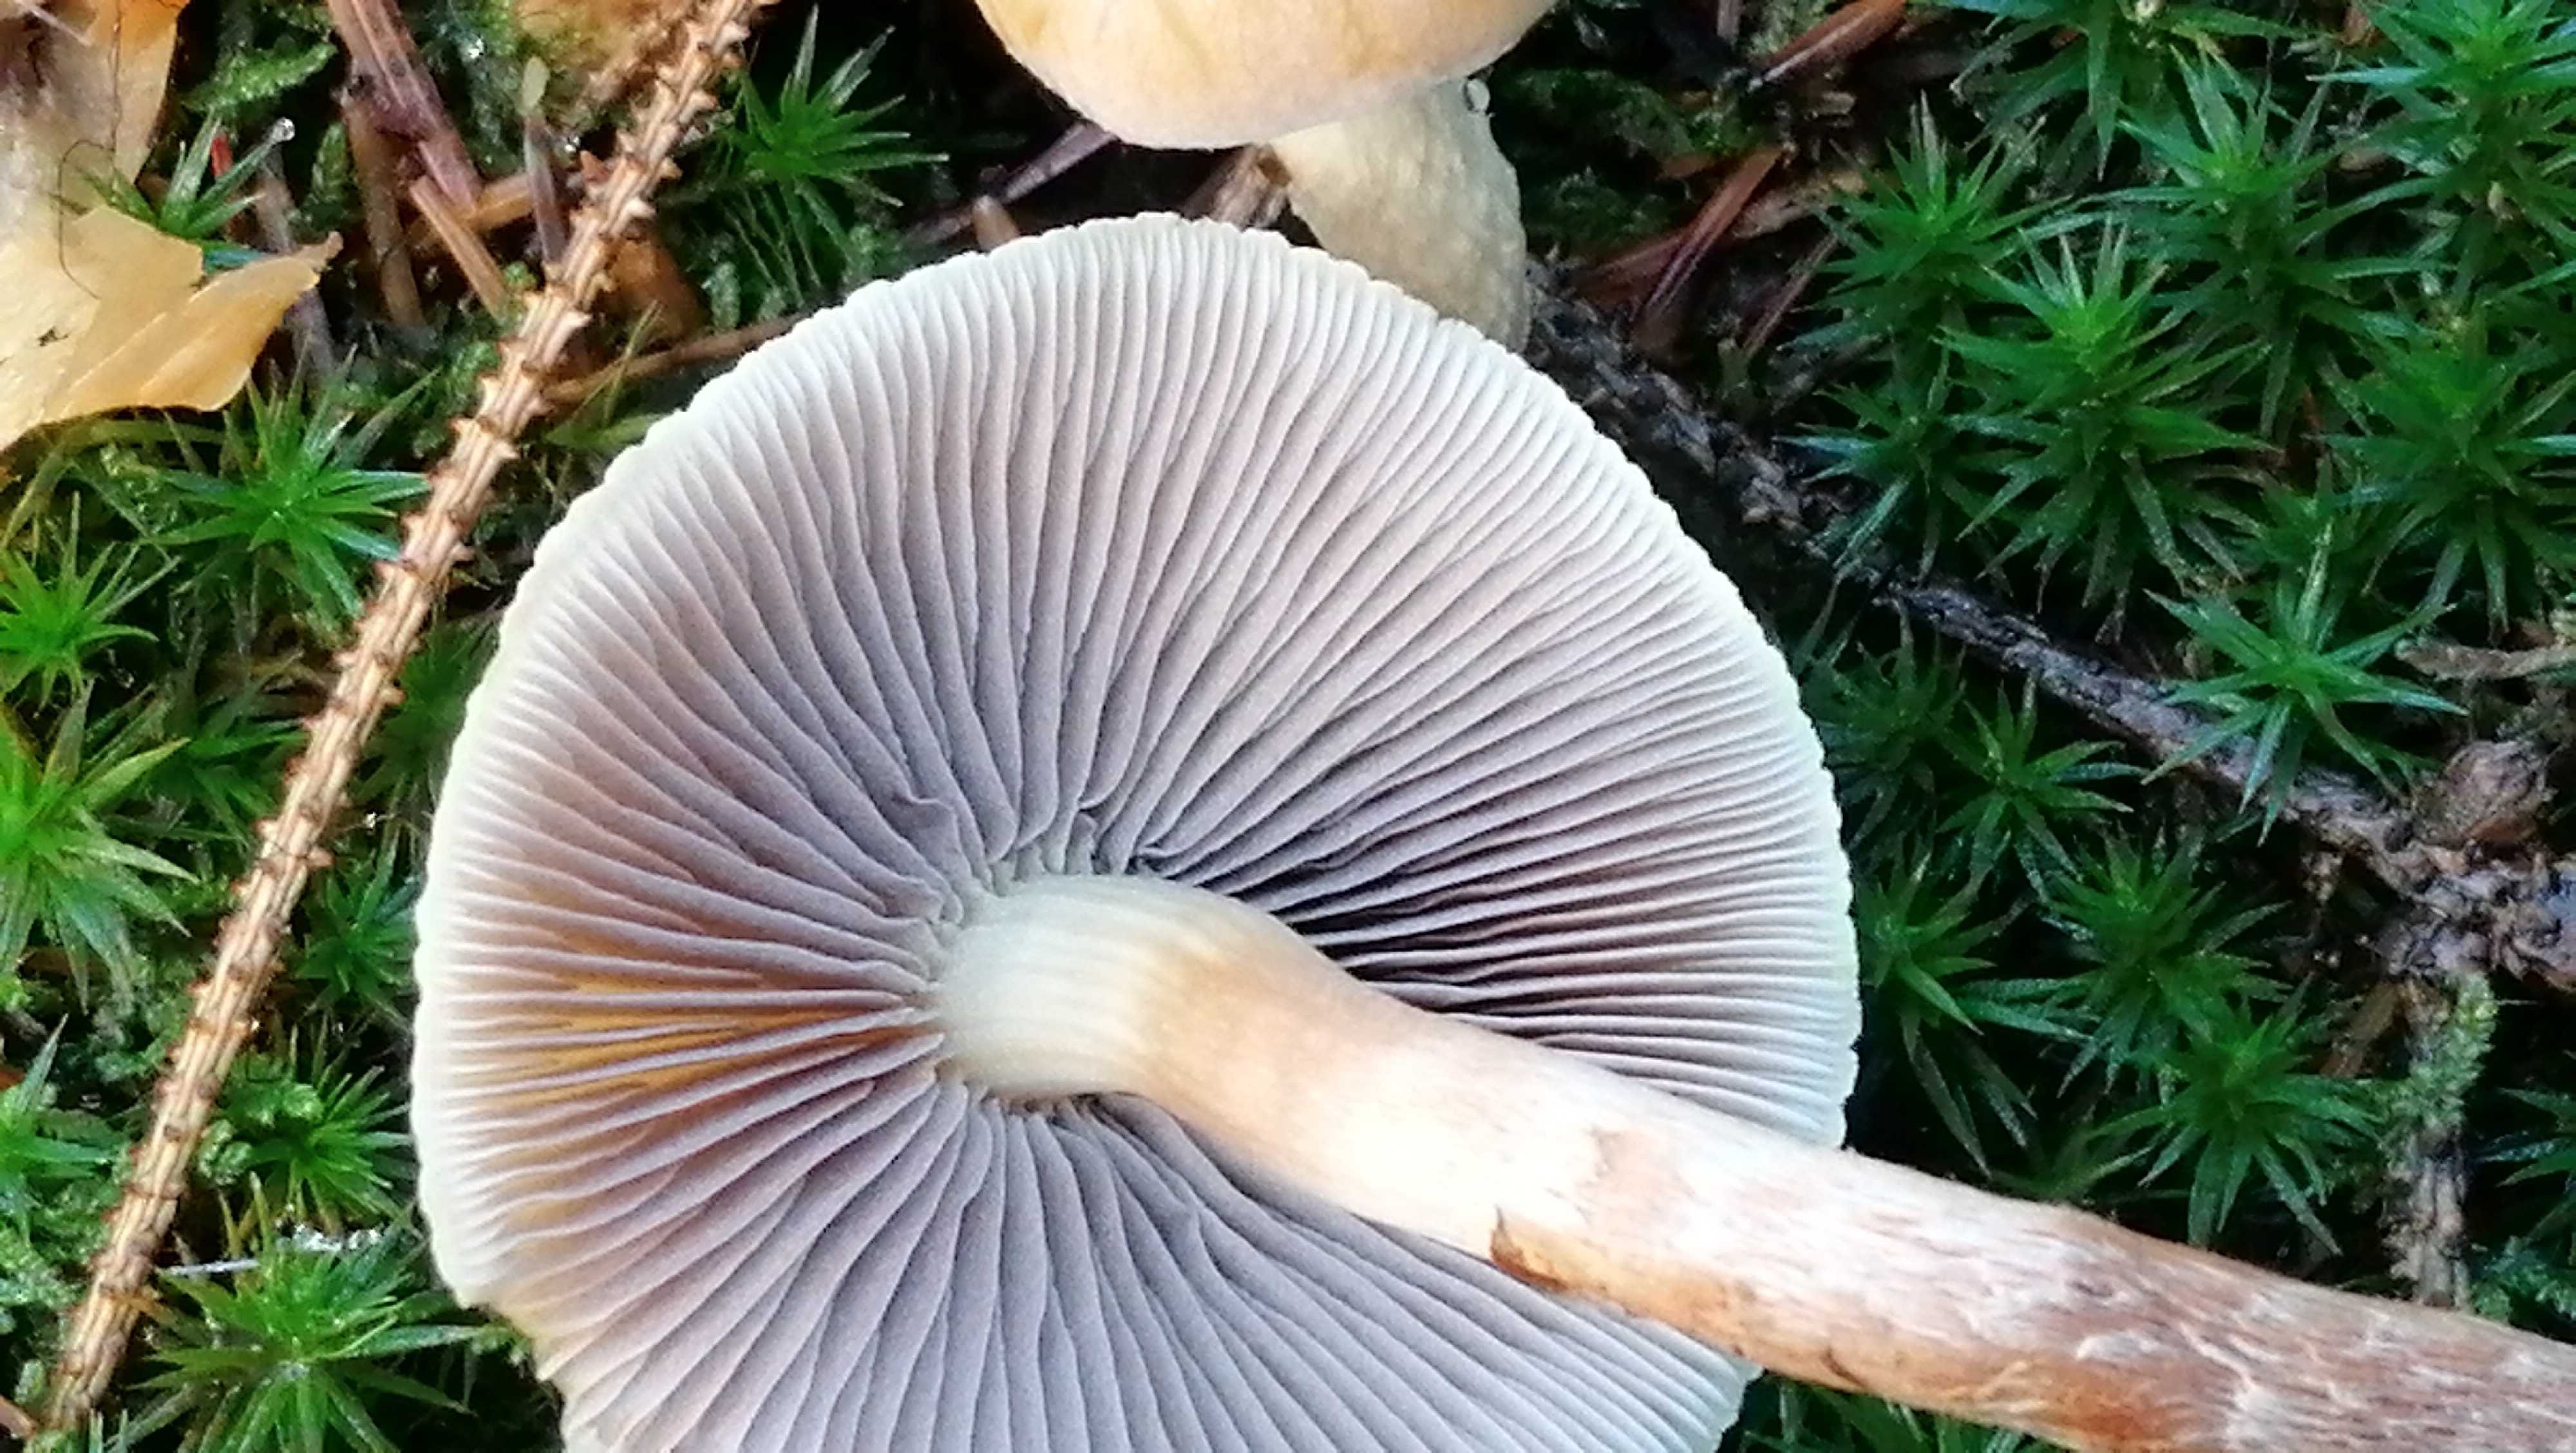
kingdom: Fungi
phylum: Basidiomycota
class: Agaricomycetes
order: Agaricales
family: Strophariaceae
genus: Hypholoma
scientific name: Hypholoma capnoides
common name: gran-svovlhat
